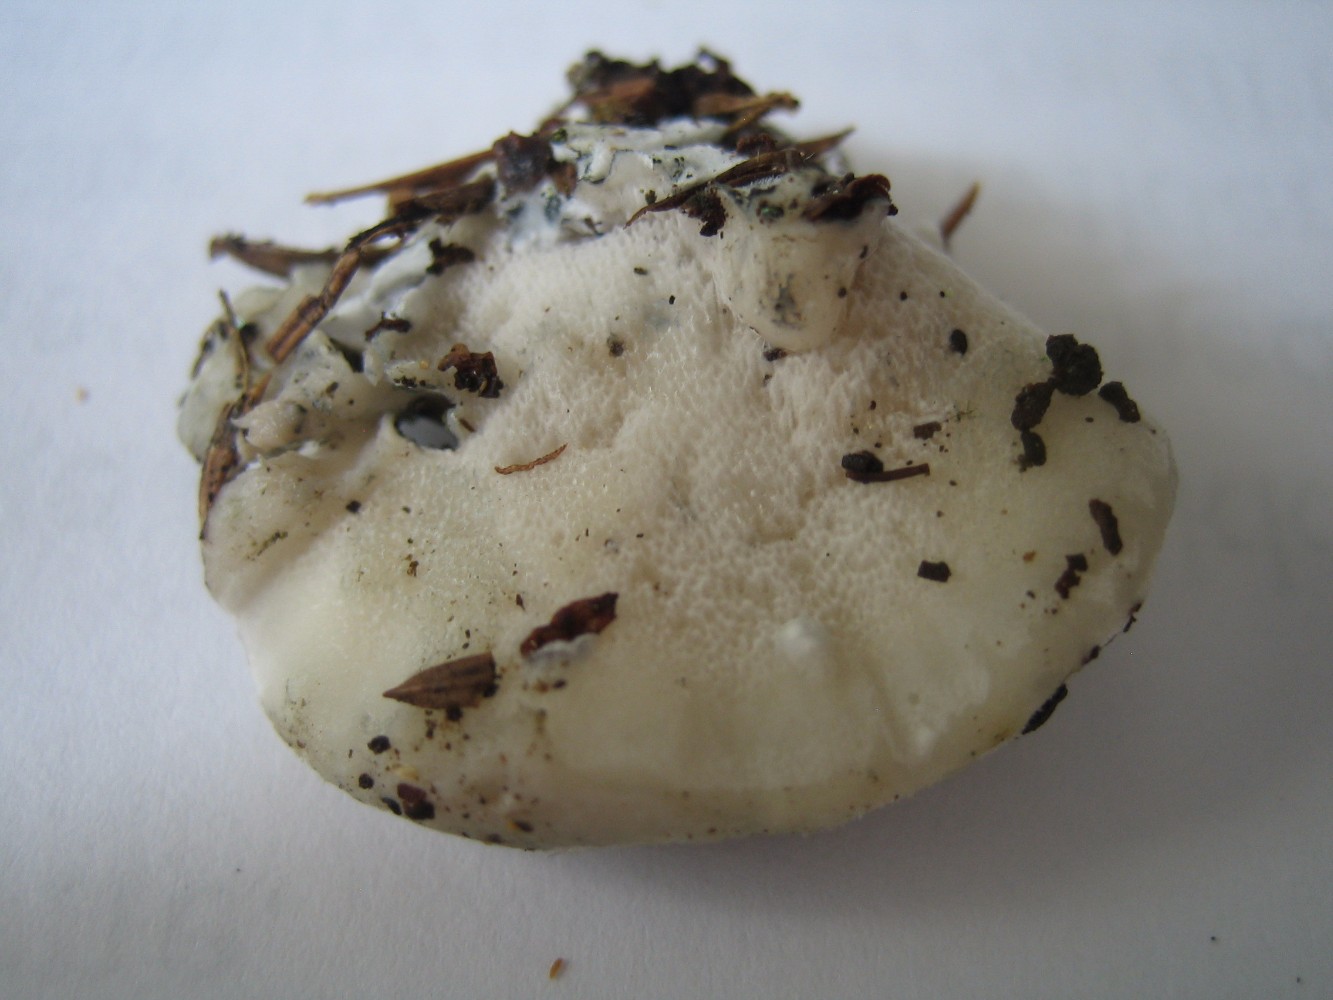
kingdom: Fungi
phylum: Basidiomycota
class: Agaricomycetes
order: Polyporales
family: Polyporaceae
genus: Cyanosporus
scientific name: Cyanosporus caesius
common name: blålig kødporesvamp
